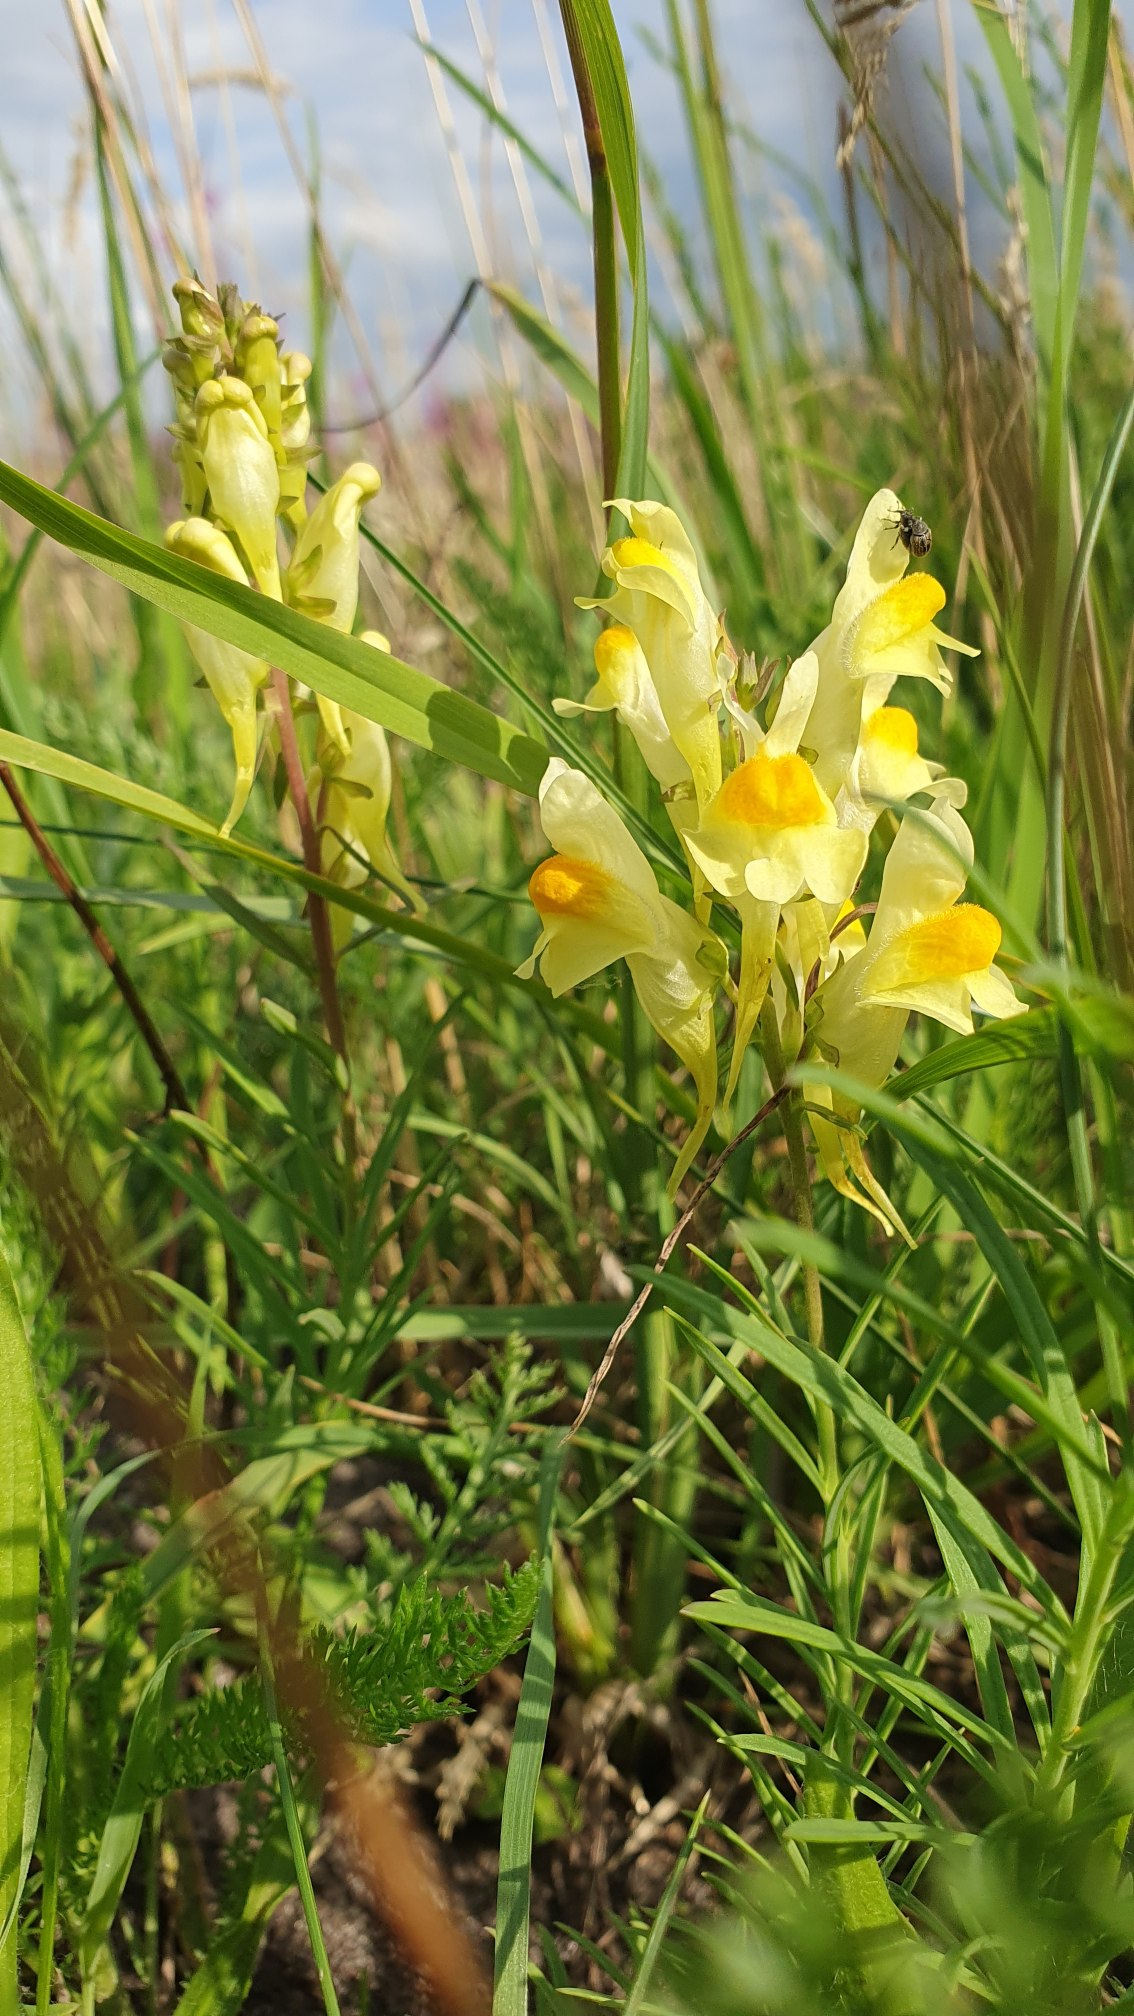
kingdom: Plantae
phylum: Tracheophyta
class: Magnoliopsida
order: Lamiales
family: Plantaginaceae
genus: Linaria
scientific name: Linaria vulgaris
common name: Almindelig torskemund
